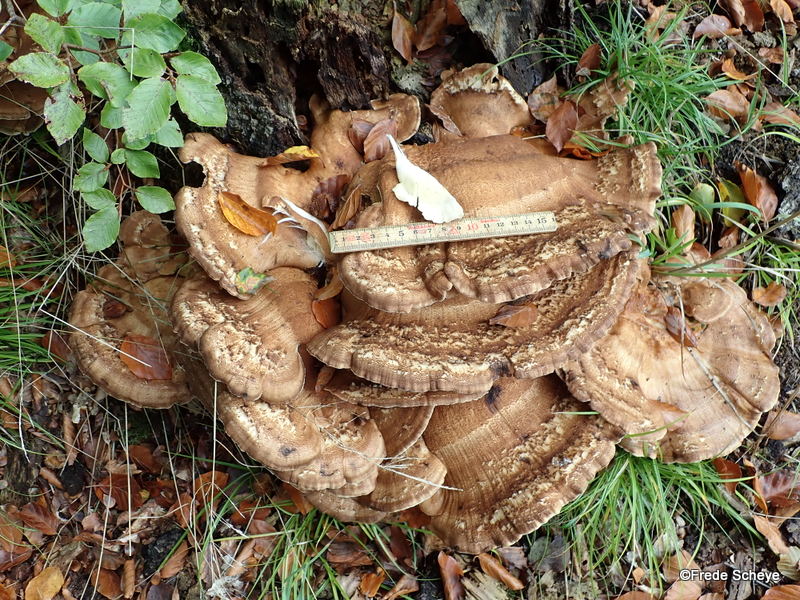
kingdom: Fungi
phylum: Basidiomycota
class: Agaricomycetes
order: Polyporales
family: Meripilaceae
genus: Meripilus
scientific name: Meripilus giganteus
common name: kæmpeporesvamp
